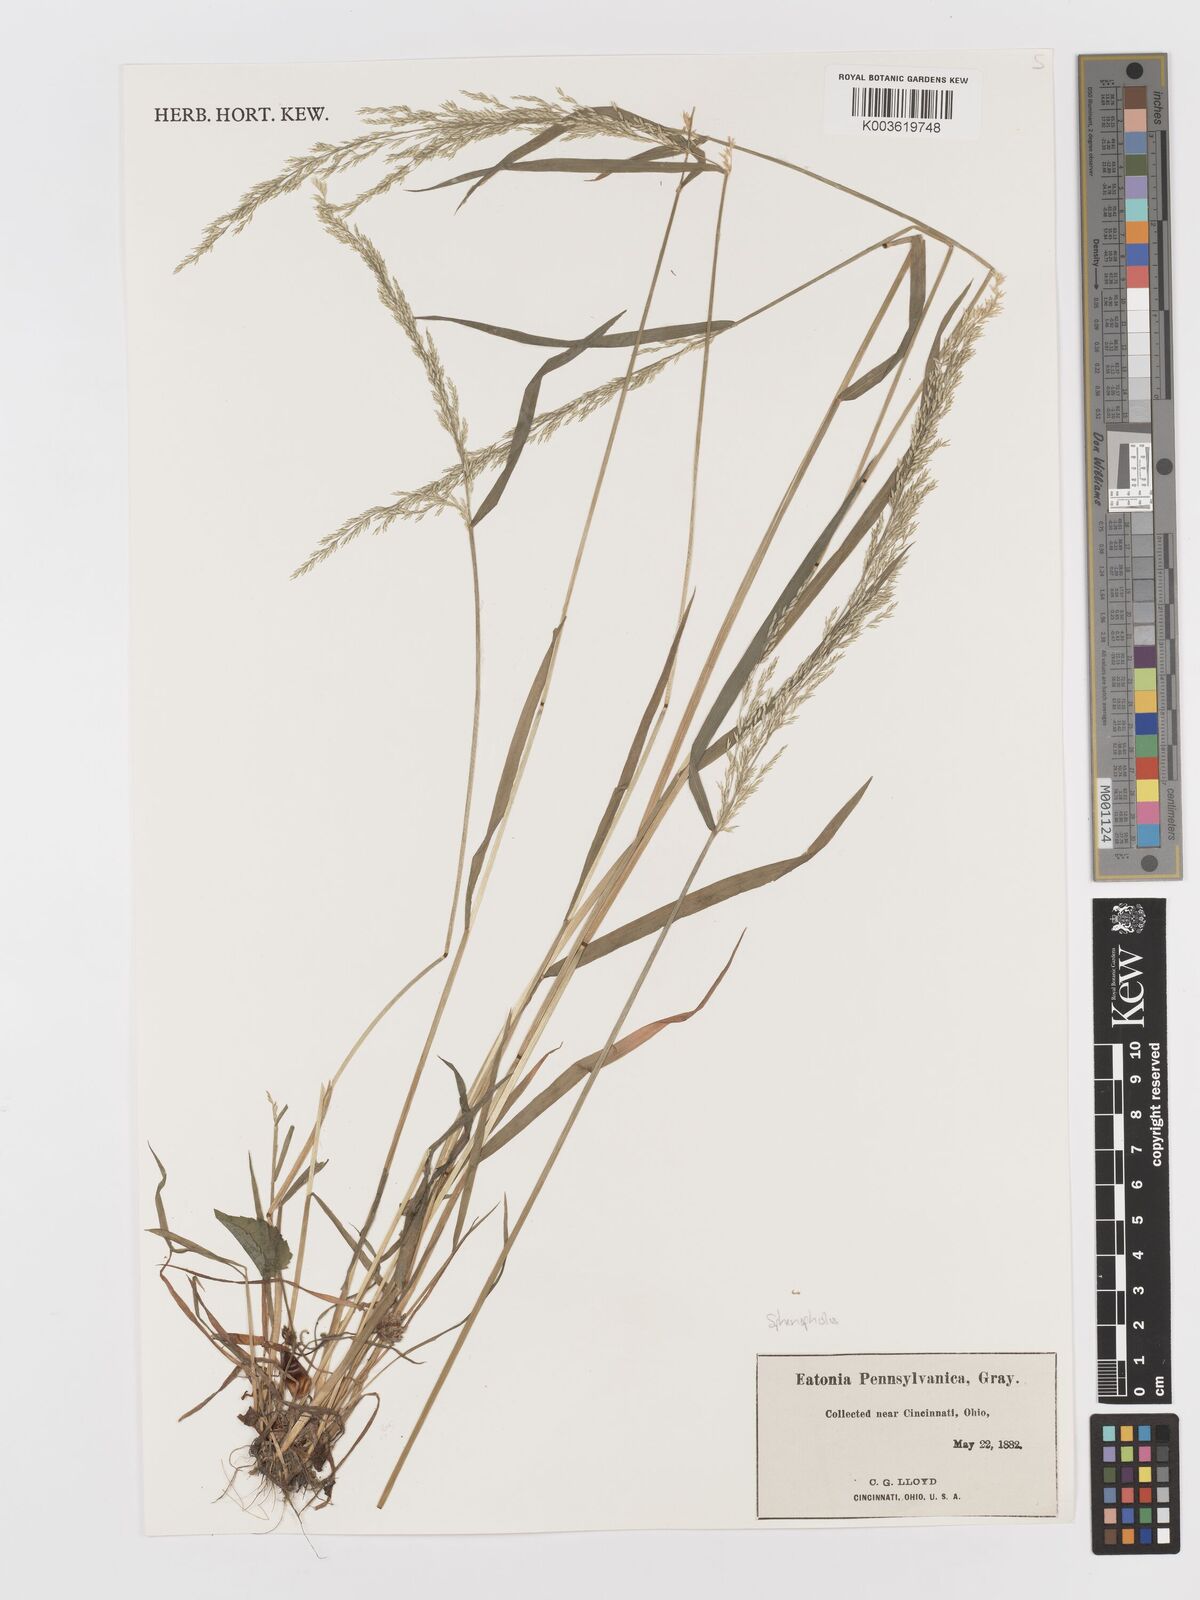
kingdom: Plantae
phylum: Tracheophyta
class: Liliopsida
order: Poales
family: Poaceae
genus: Sphenopholis
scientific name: Sphenopholis pensylvanica
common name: Swamp oats
